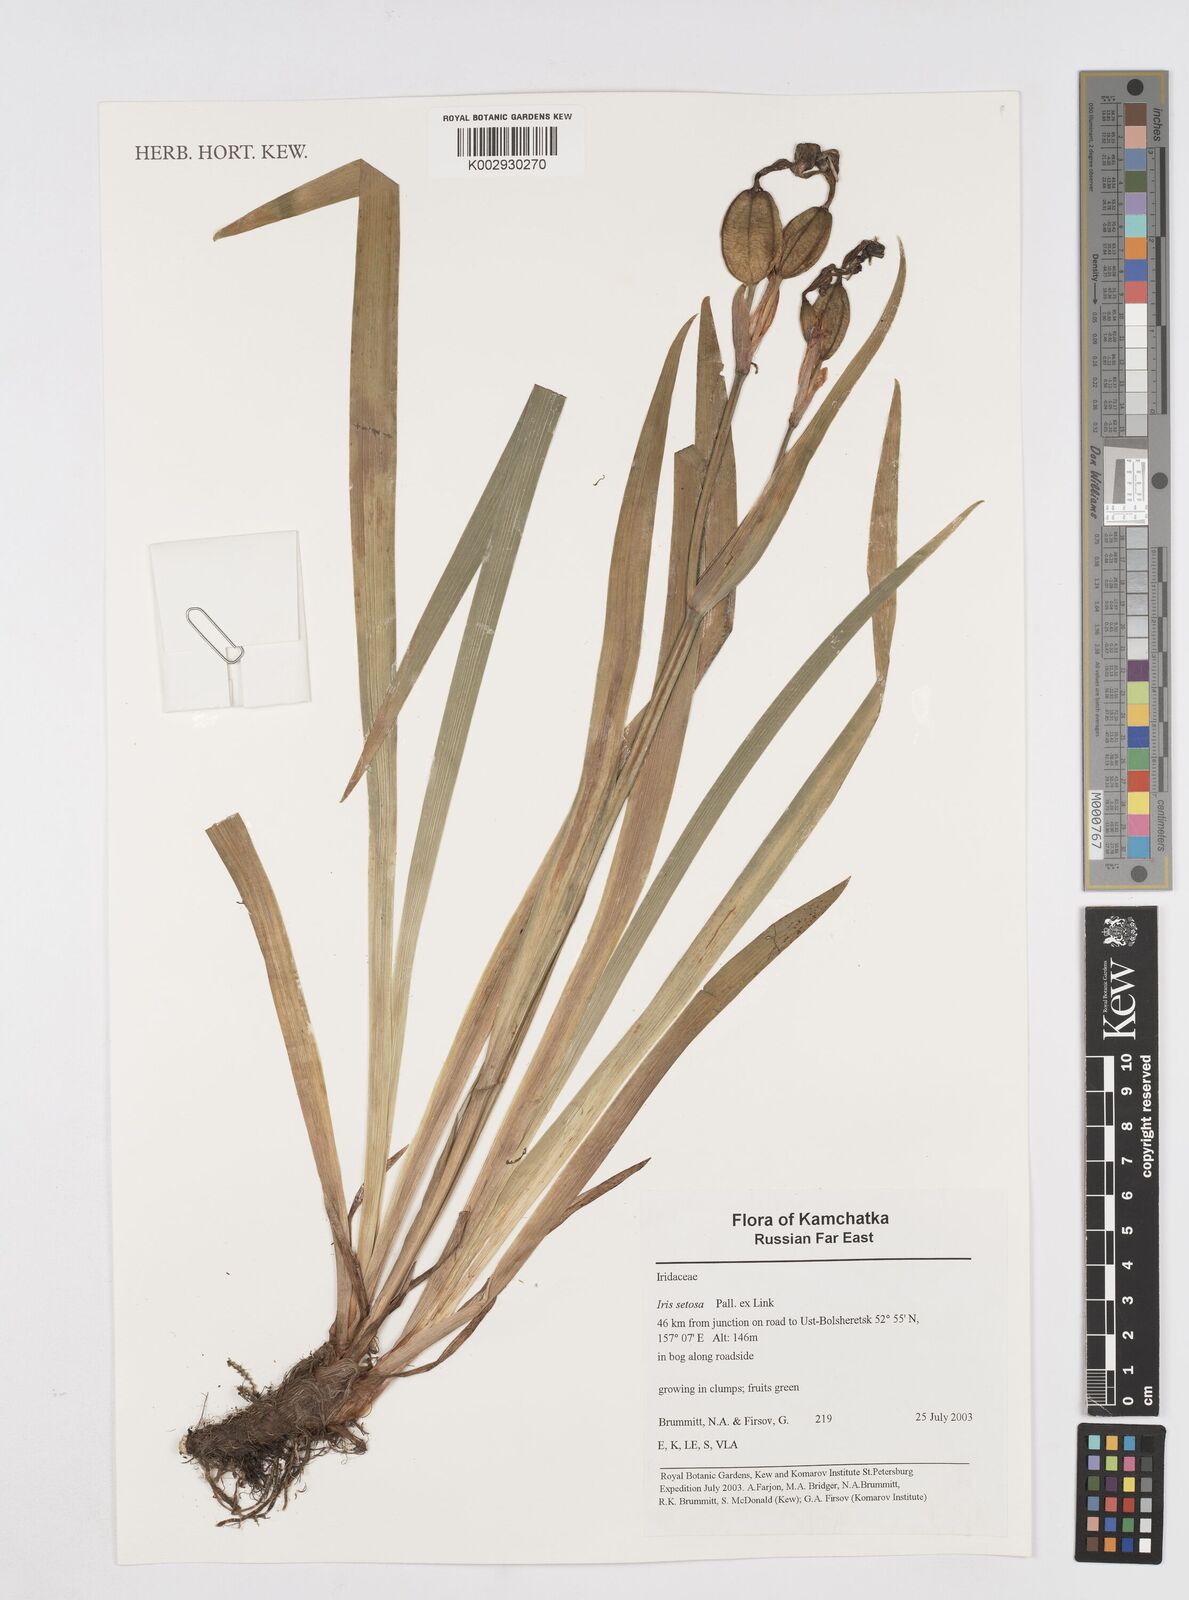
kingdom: Plantae
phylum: Tracheophyta
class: Liliopsida
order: Asparagales
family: Iridaceae
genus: Iris
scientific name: Iris setosa
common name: Arctic blue flag
